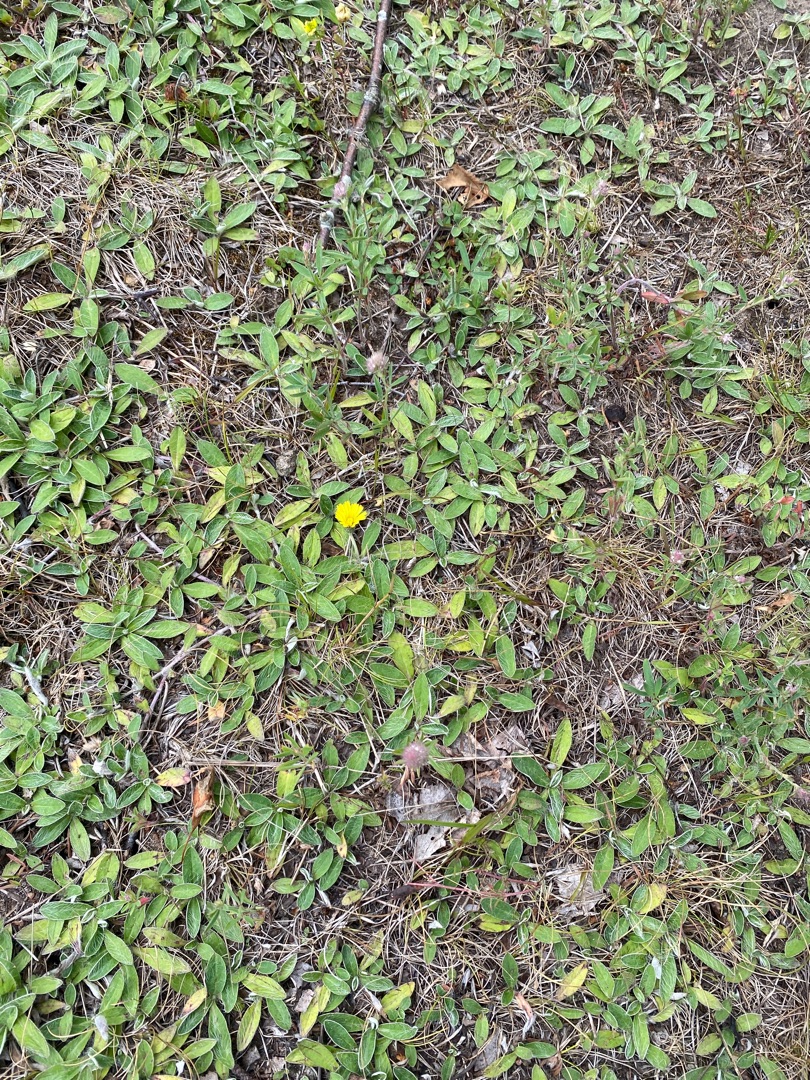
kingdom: Plantae
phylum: Tracheophyta
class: Magnoliopsida
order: Asterales
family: Asteraceae
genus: Pilosella
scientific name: Pilosella officinarum
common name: Håret høgeurt
